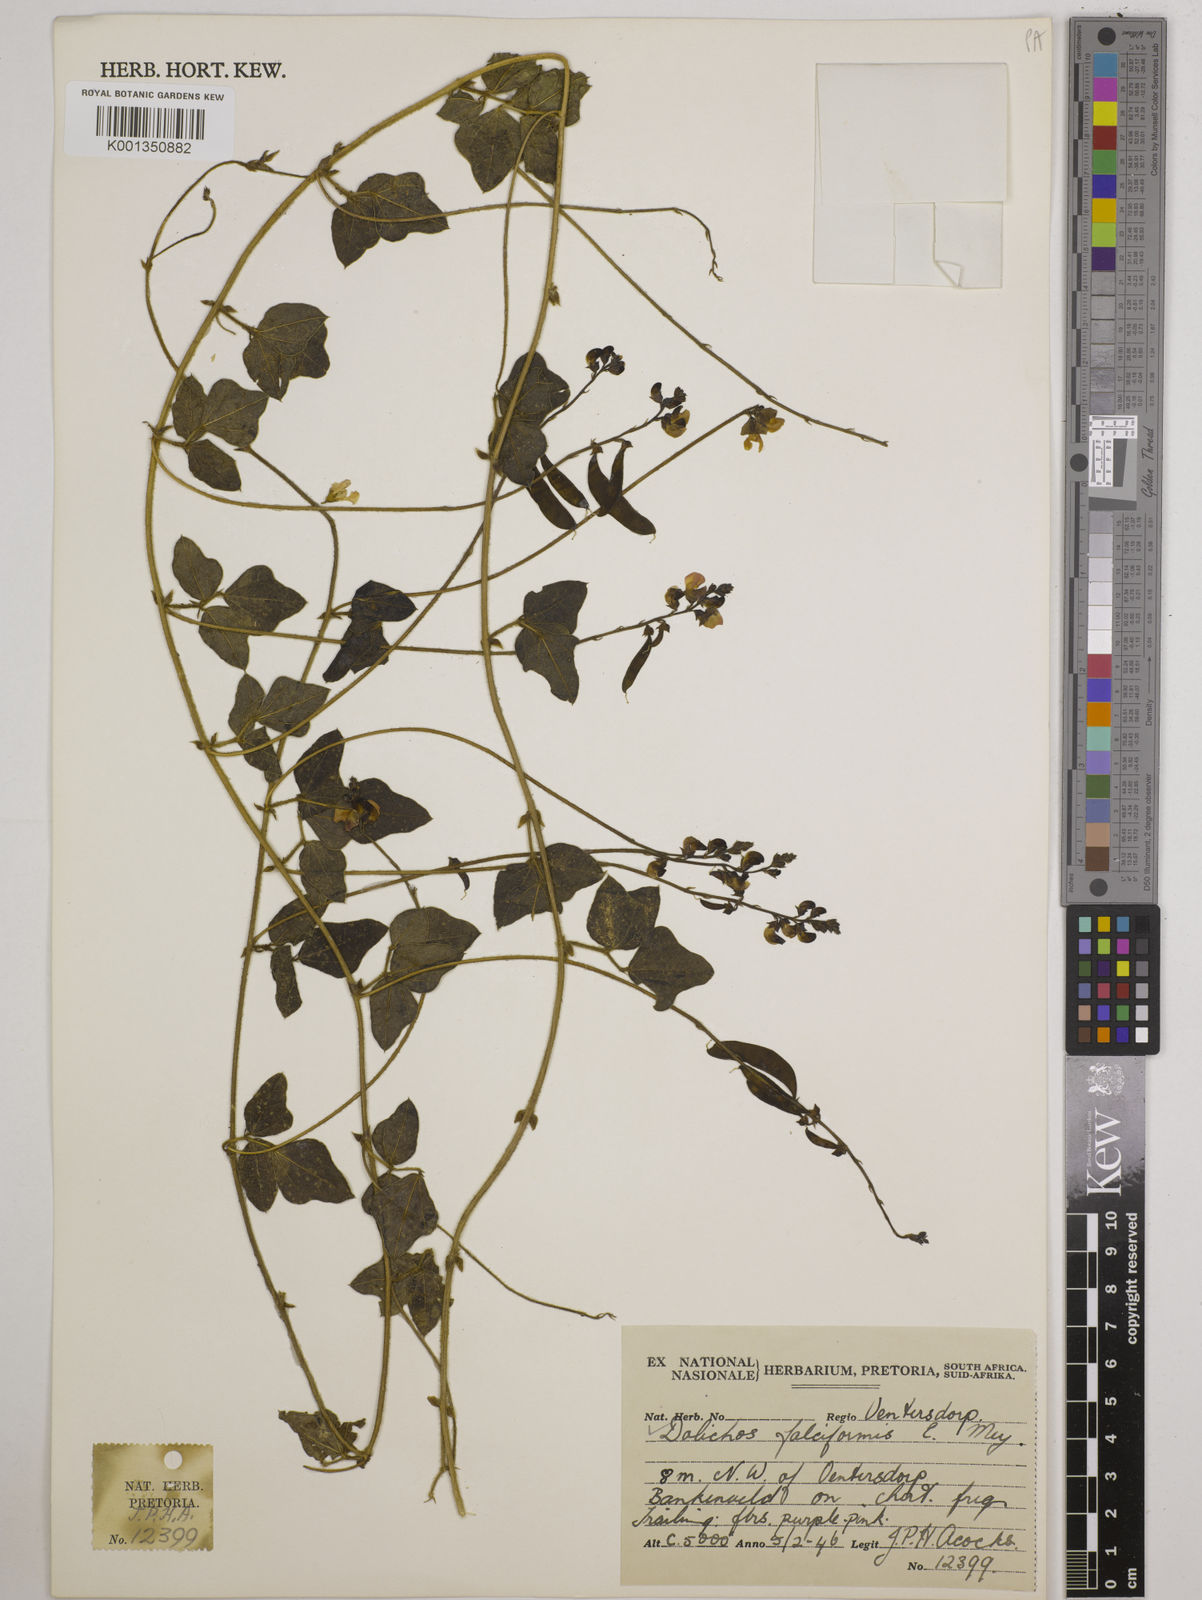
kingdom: Plantae
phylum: Tracheophyta
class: Magnoliopsida
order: Fabales
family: Fabaceae
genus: Dolichos
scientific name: Dolichos falciformis
